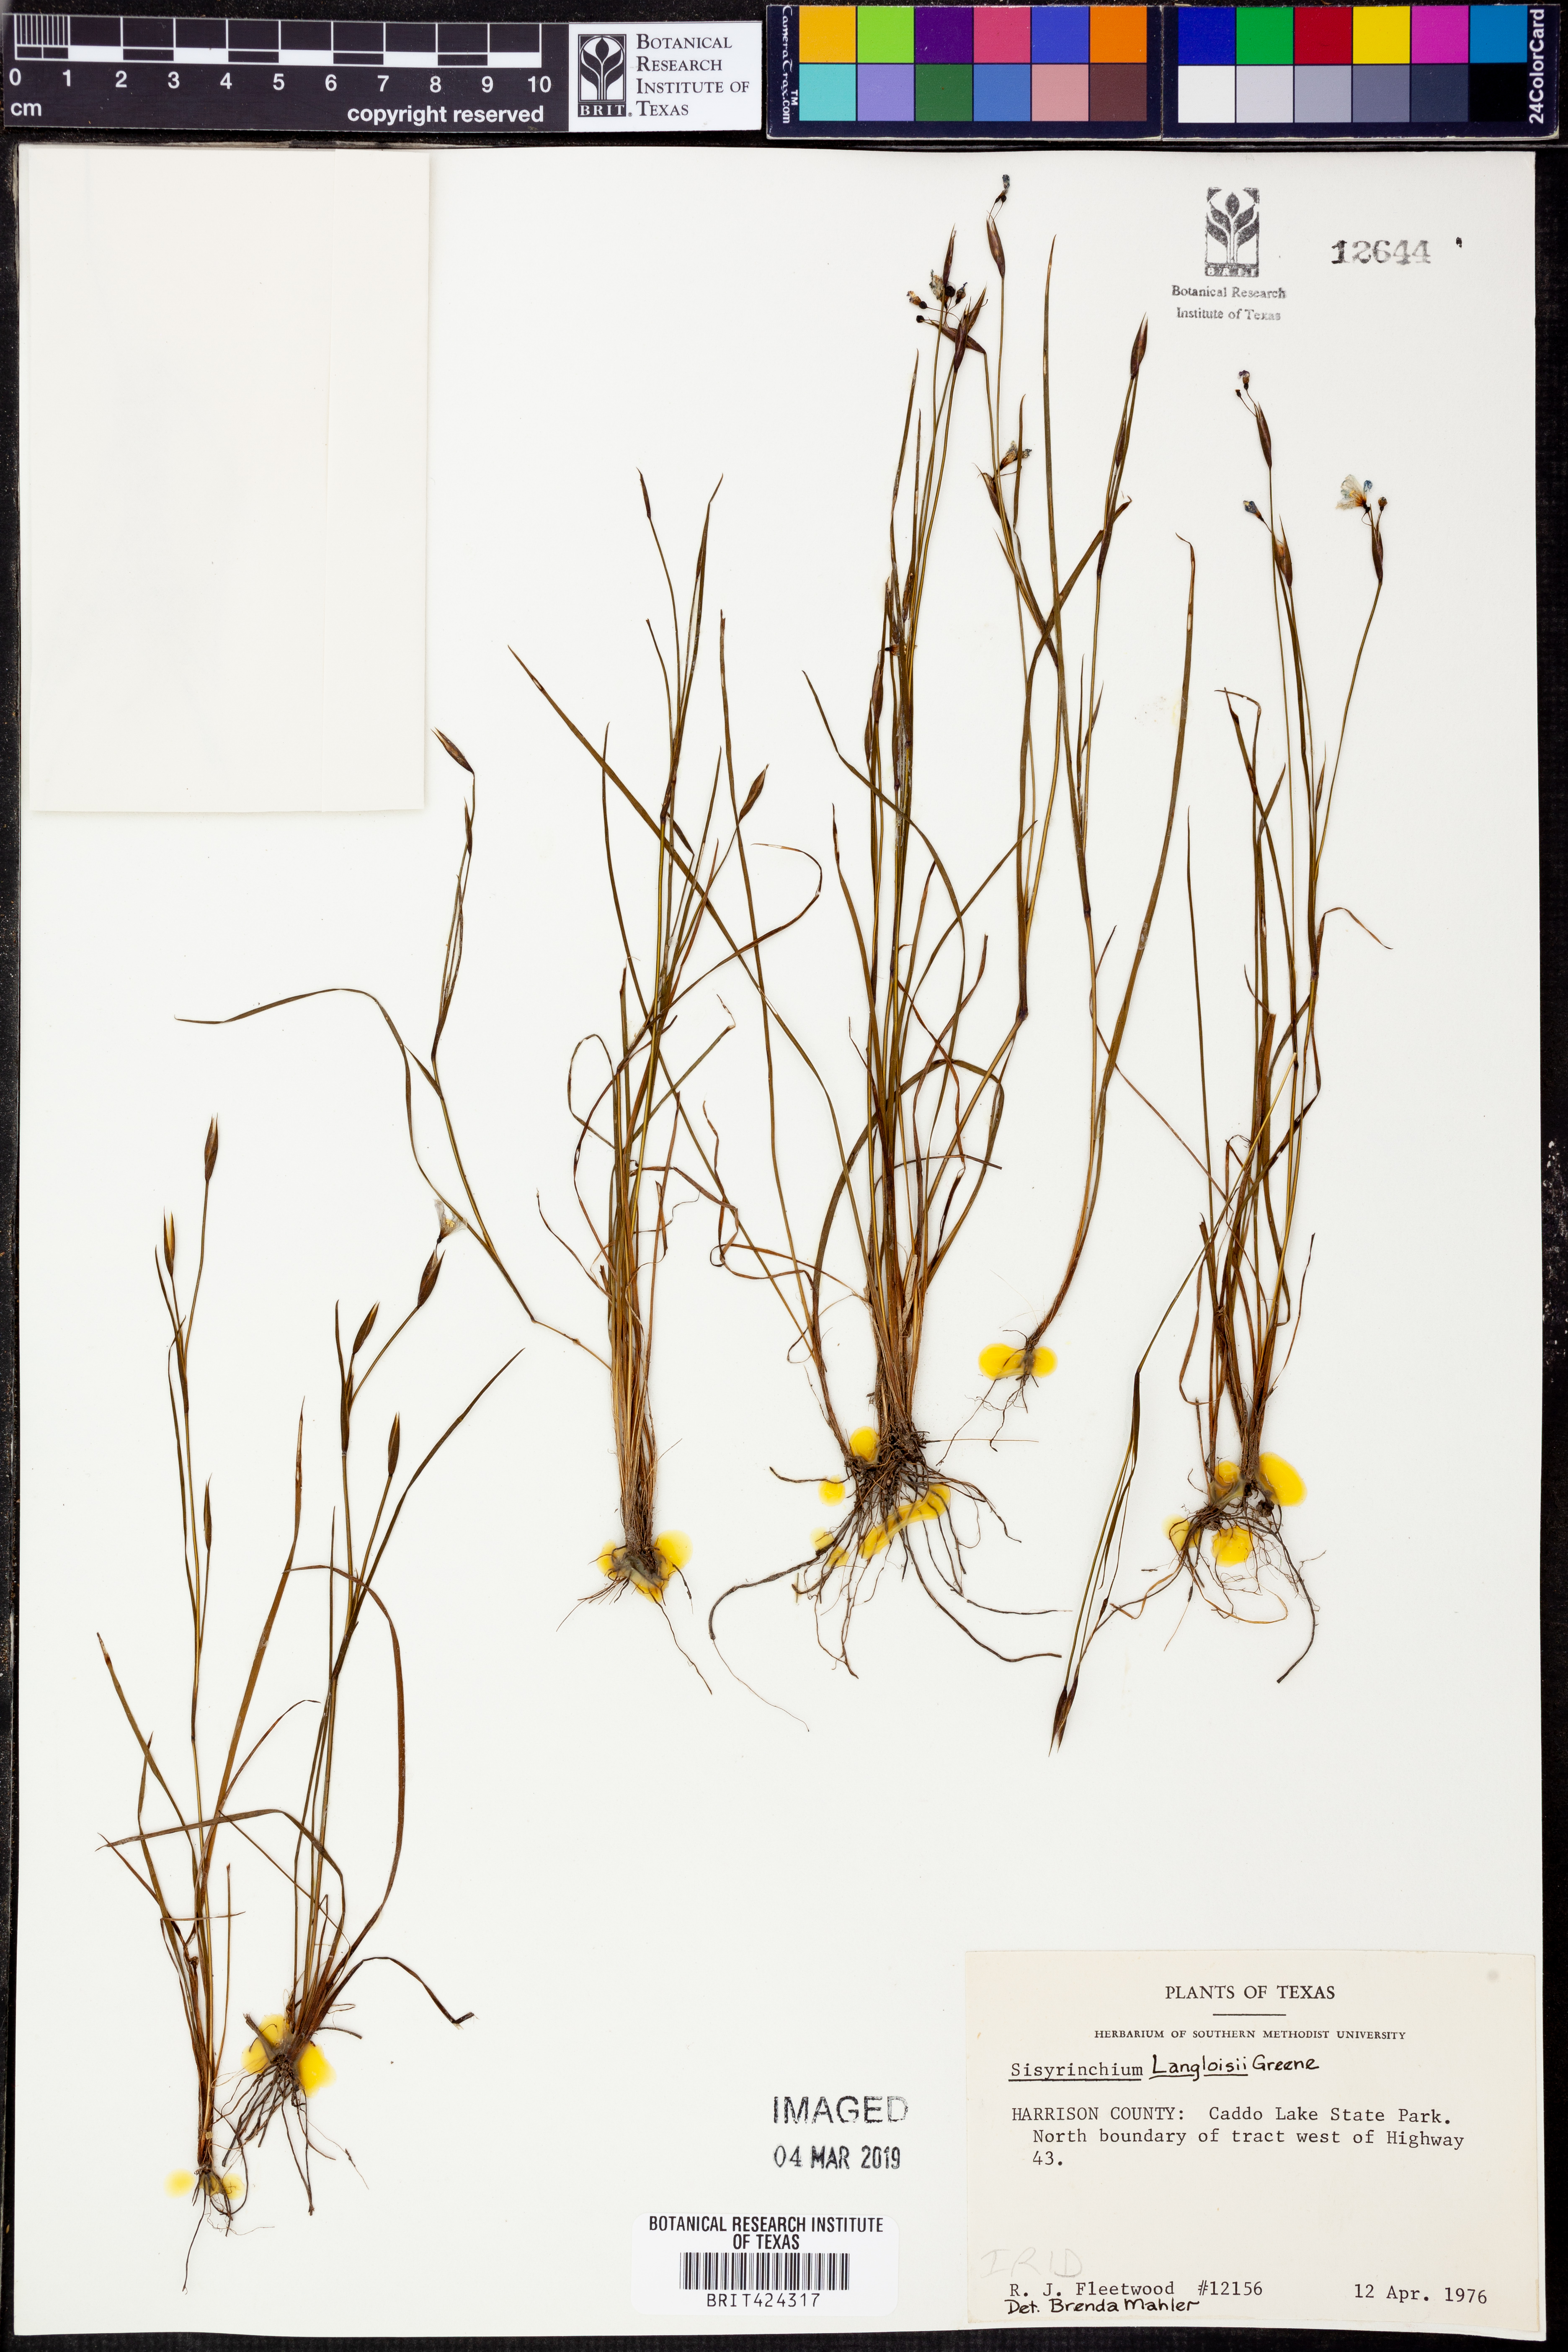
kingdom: Plantae
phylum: Tracheophyta
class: Liliopsida
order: Asparagales
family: Iridaceae
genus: Sisyrinchium
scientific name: Sisyrinchium langloisii
